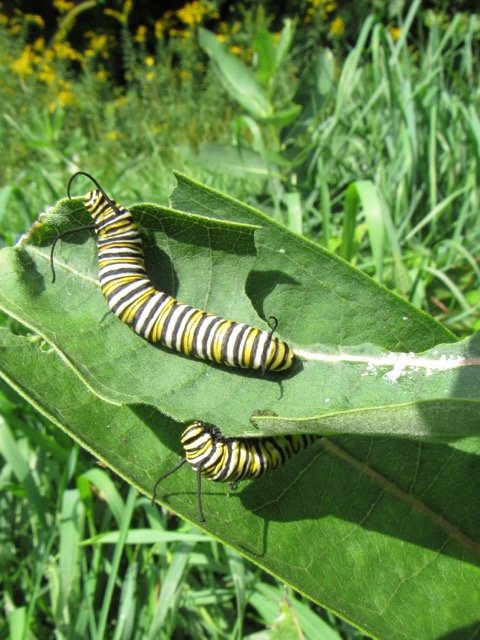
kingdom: Animalia
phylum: Arthropoda
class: Insecta
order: Lepidoptera
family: Nymphalidae
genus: Danaus
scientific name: Danaus plexippus
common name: Monarch
